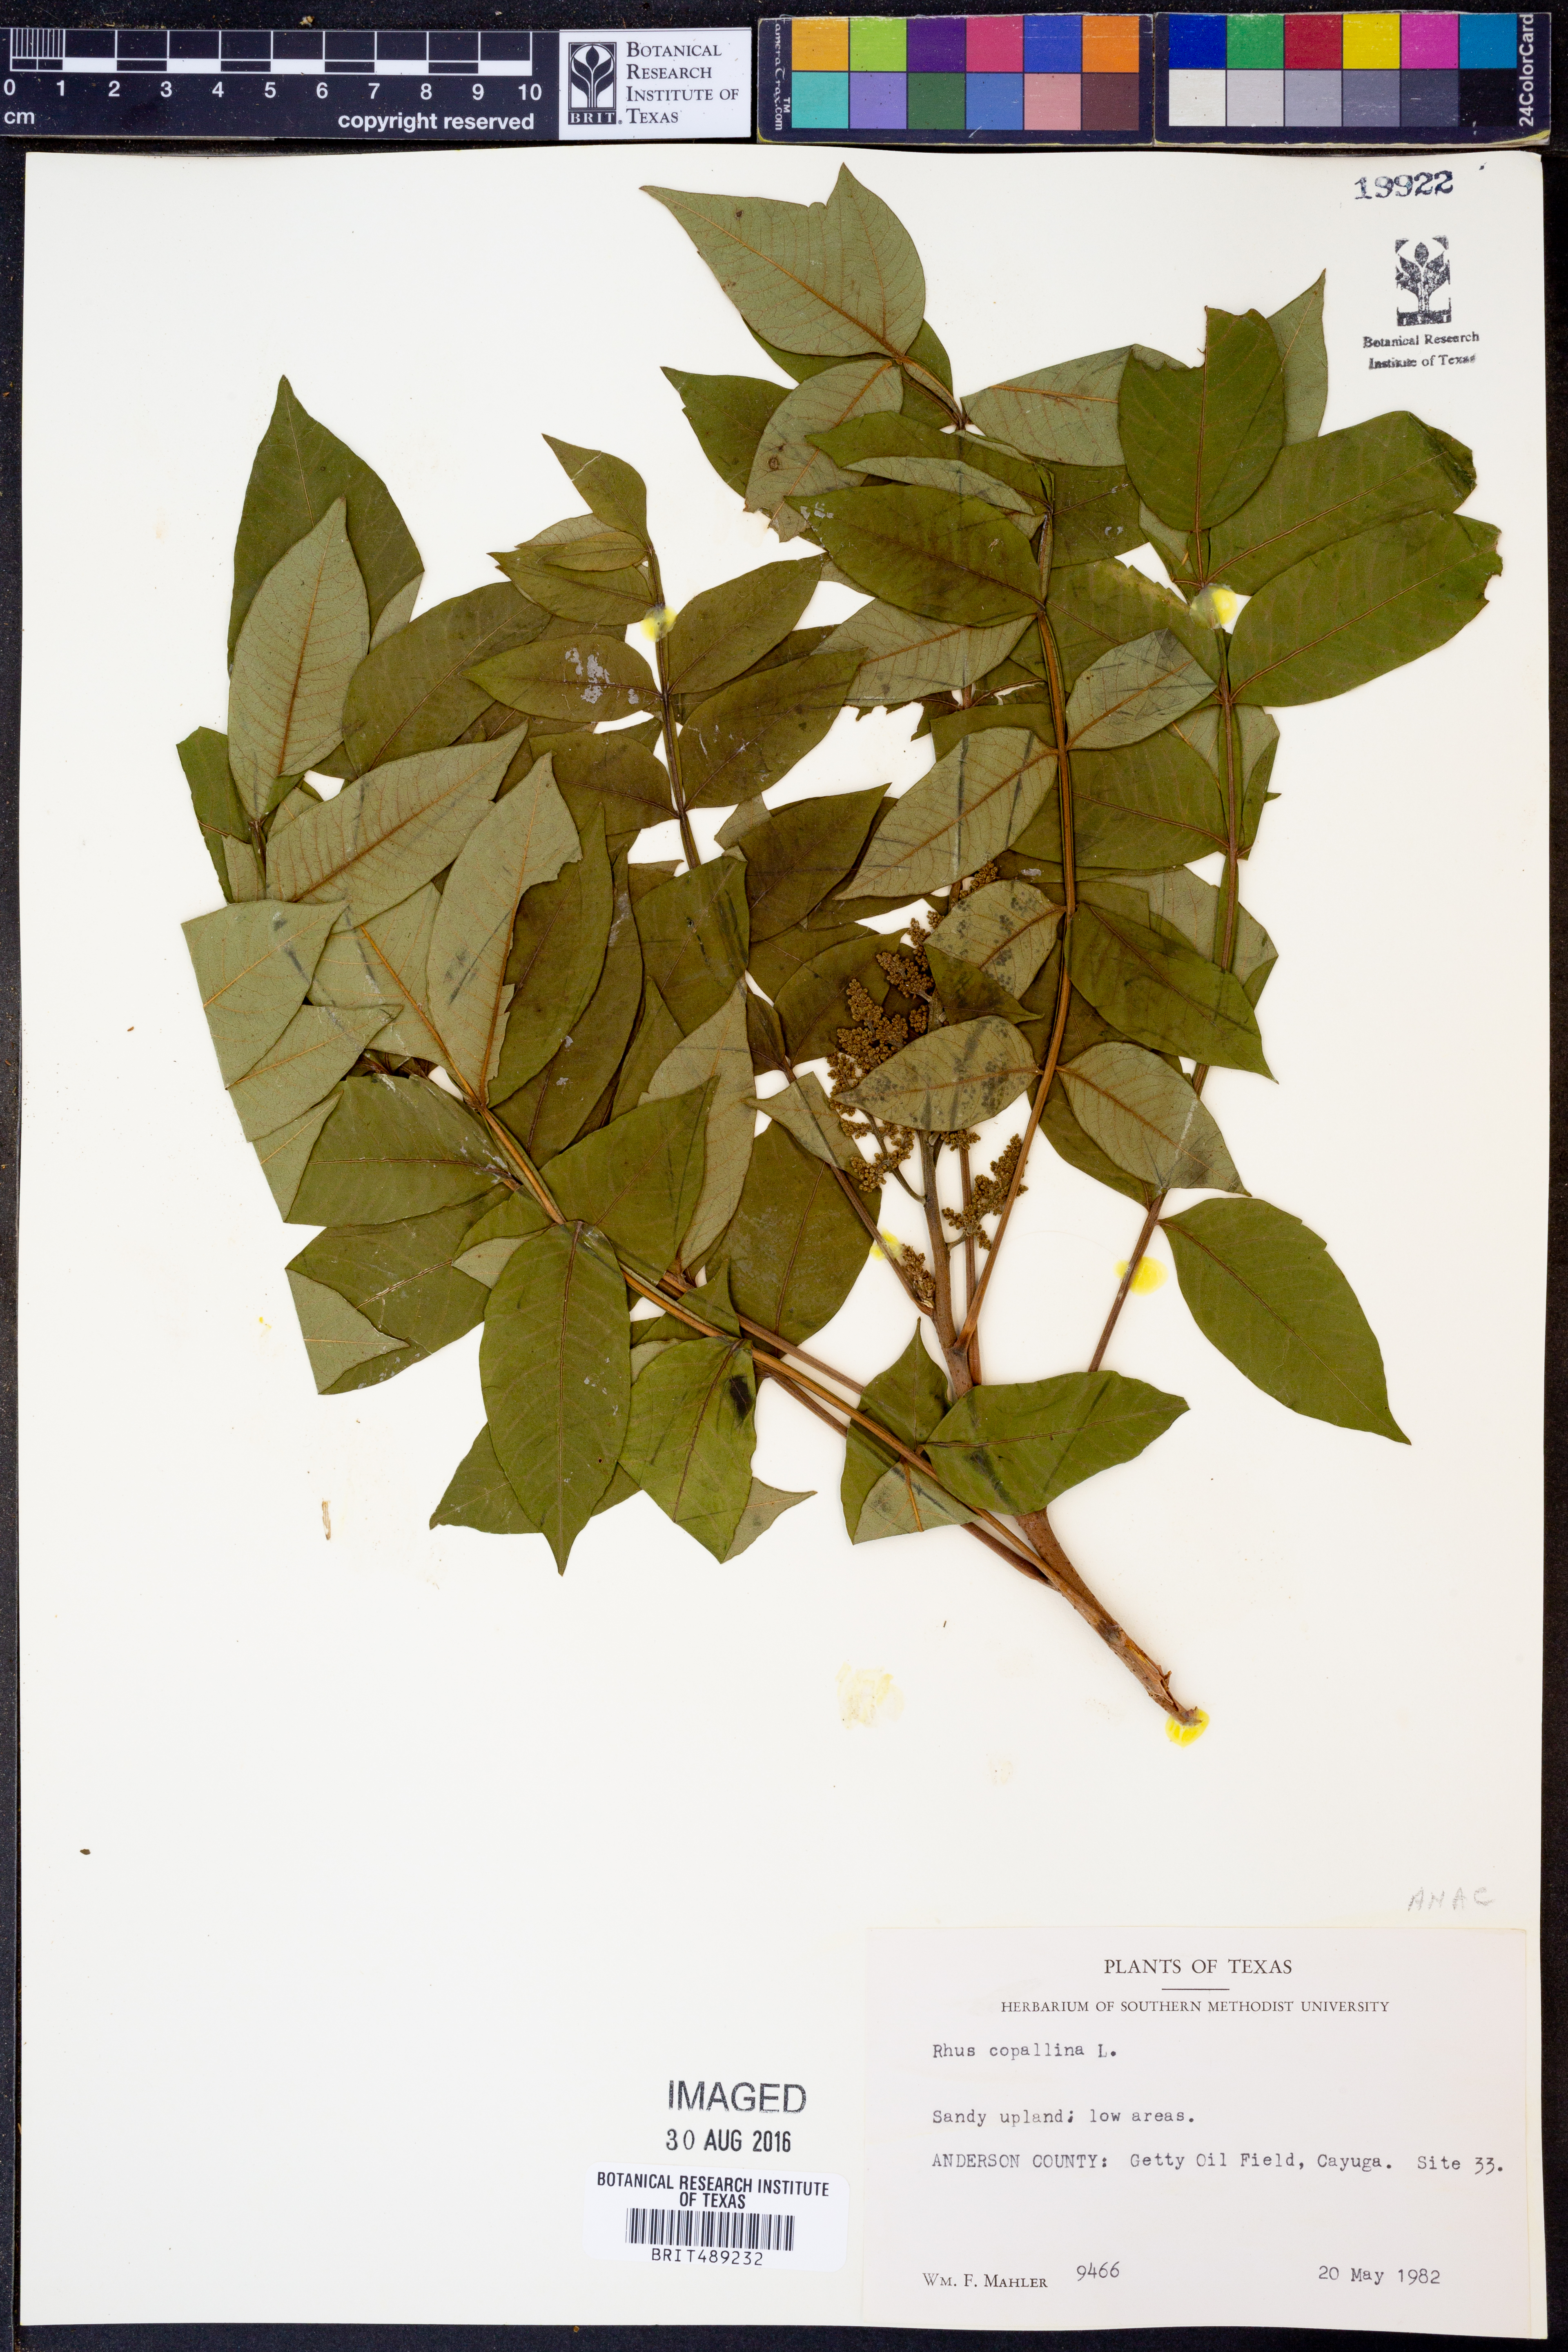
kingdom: Plantae
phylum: Tracheophyta
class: Magnoliopsida
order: Sapindales
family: Anacardiaceae
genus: Rhus
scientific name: Rhus copallina
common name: Shining sumac
